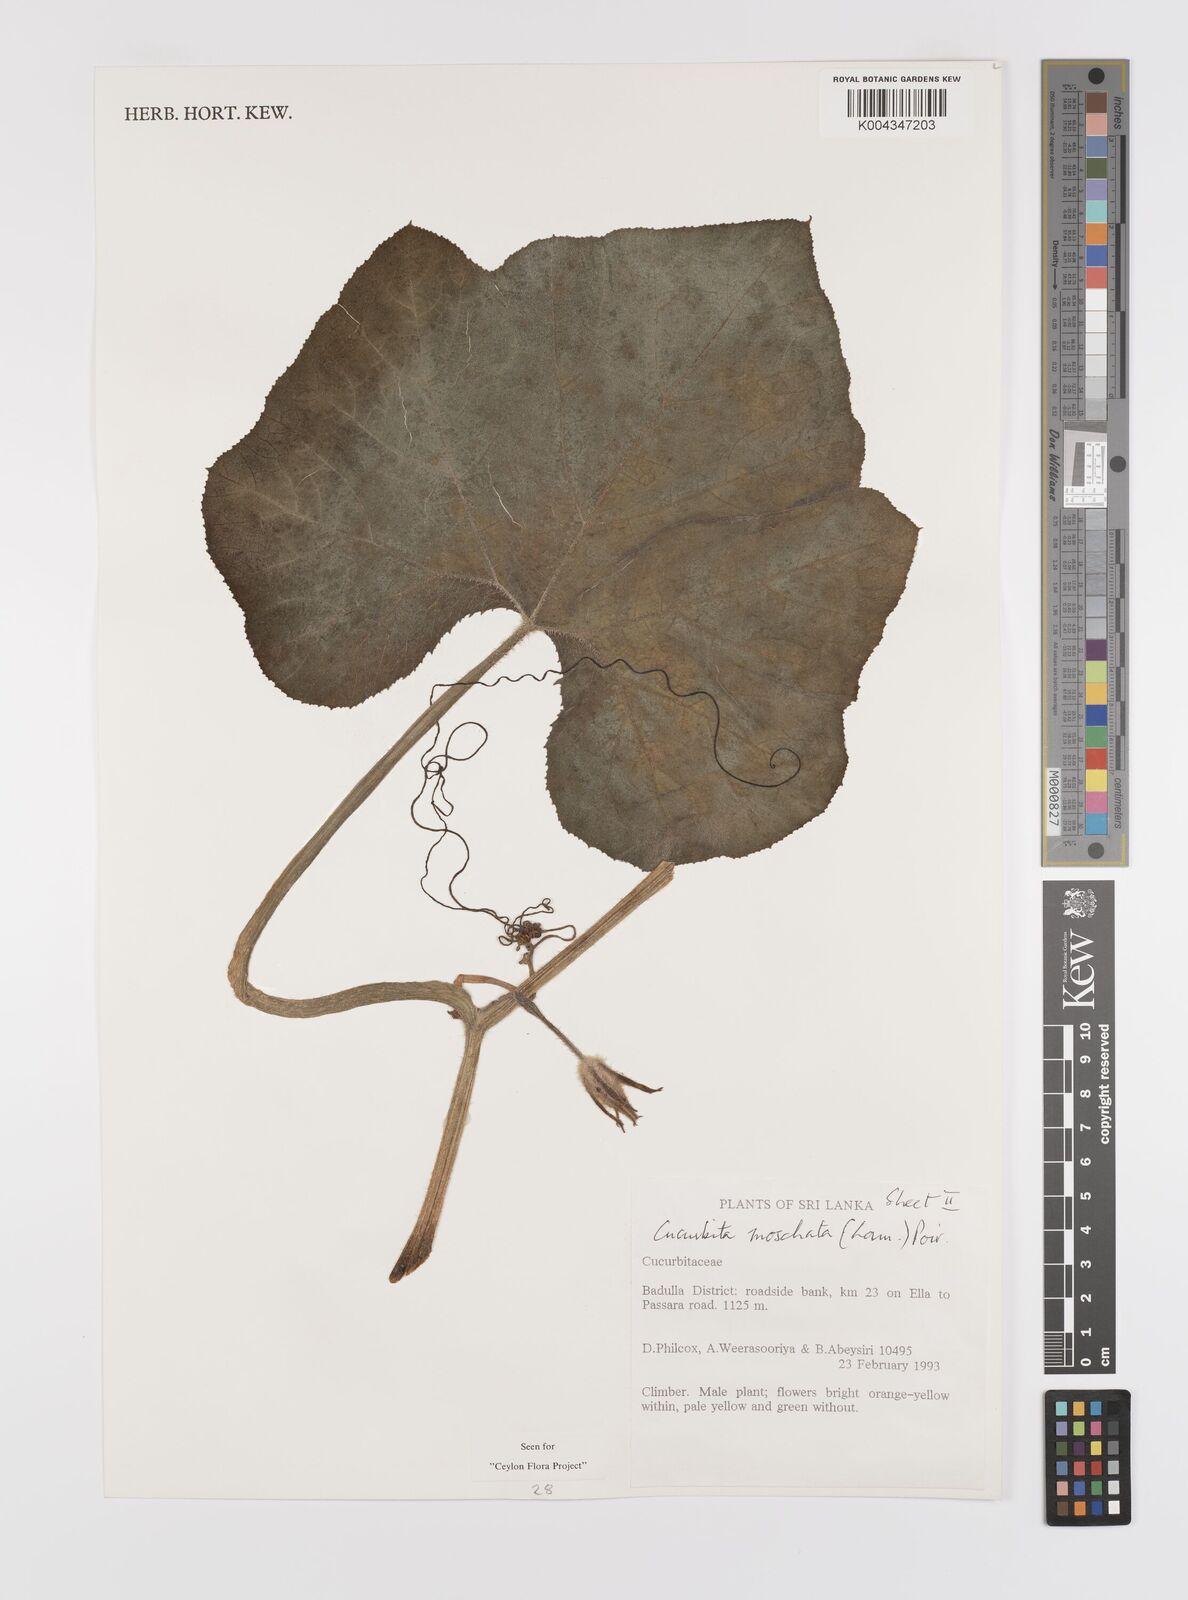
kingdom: Plantae
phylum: Tracheophyta
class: Magnoliopsida
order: Cucurbitales
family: Cucurbitaceae
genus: Cucurbita
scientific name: Cucurbita moschata
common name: Squash / pumpkin
